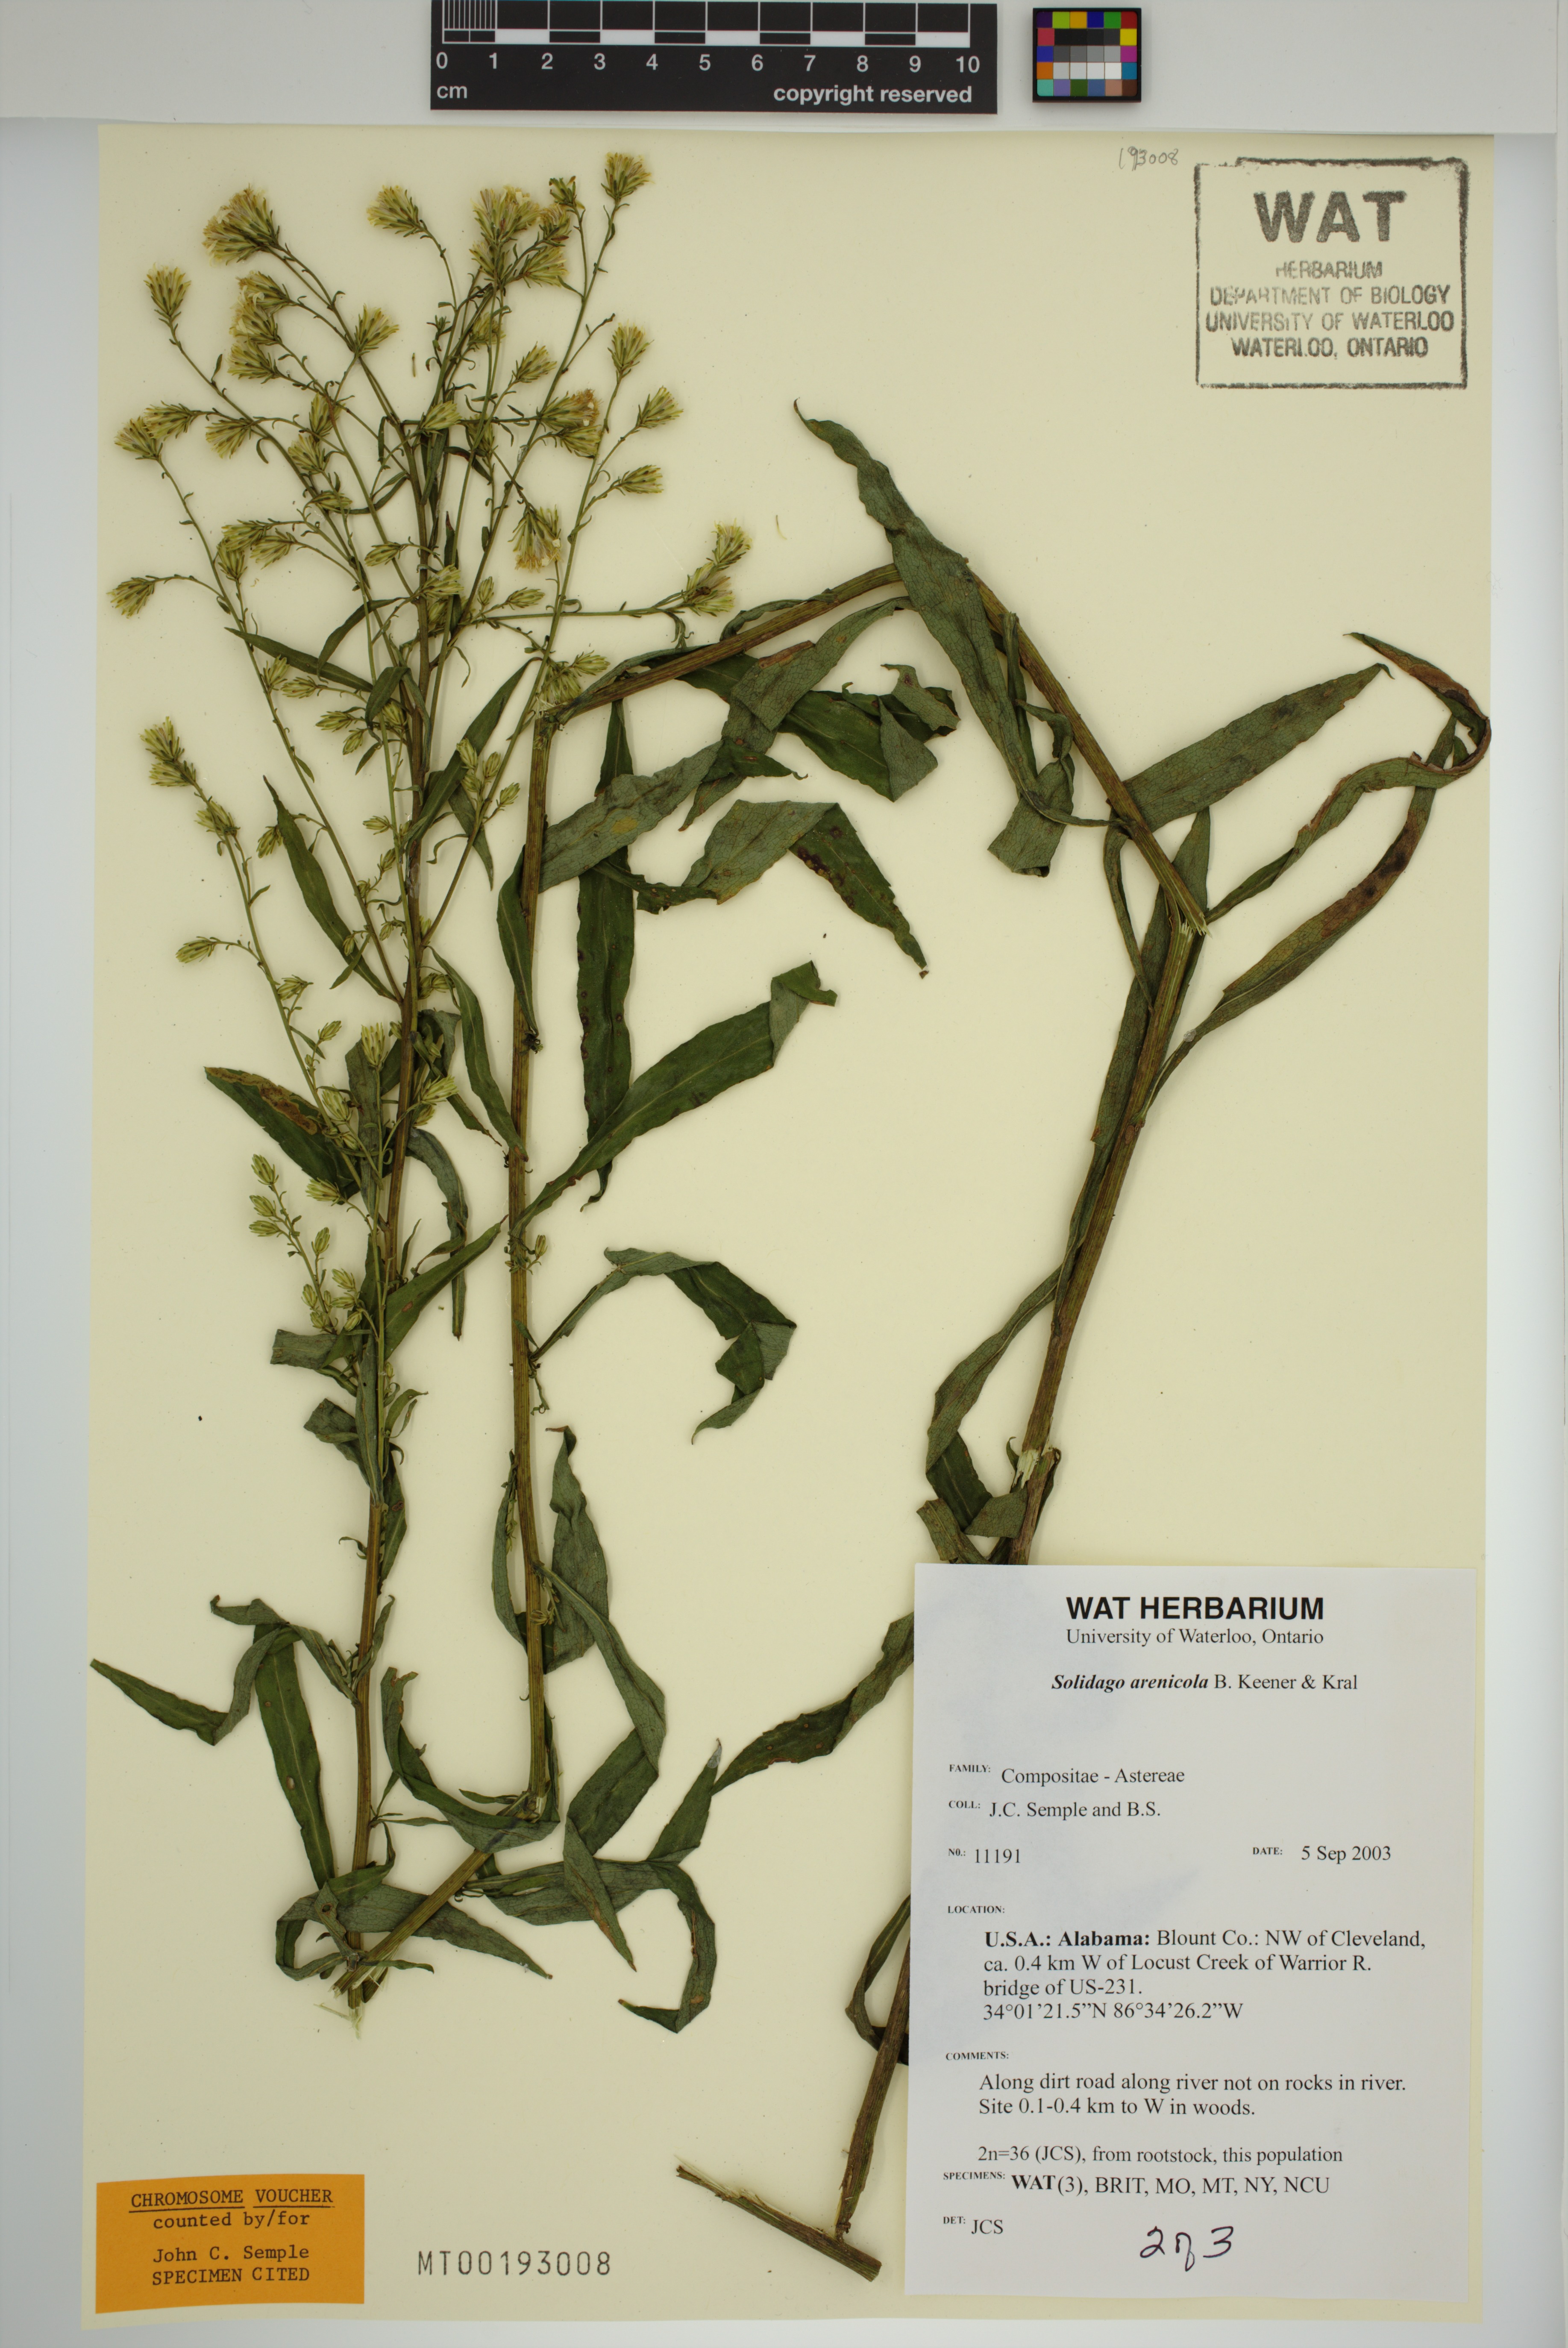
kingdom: Plantae
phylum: Tracheophyta
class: Magnoliopsida
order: Asterales
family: Asteraceae
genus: Solidago
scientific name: Solidago arenicola
